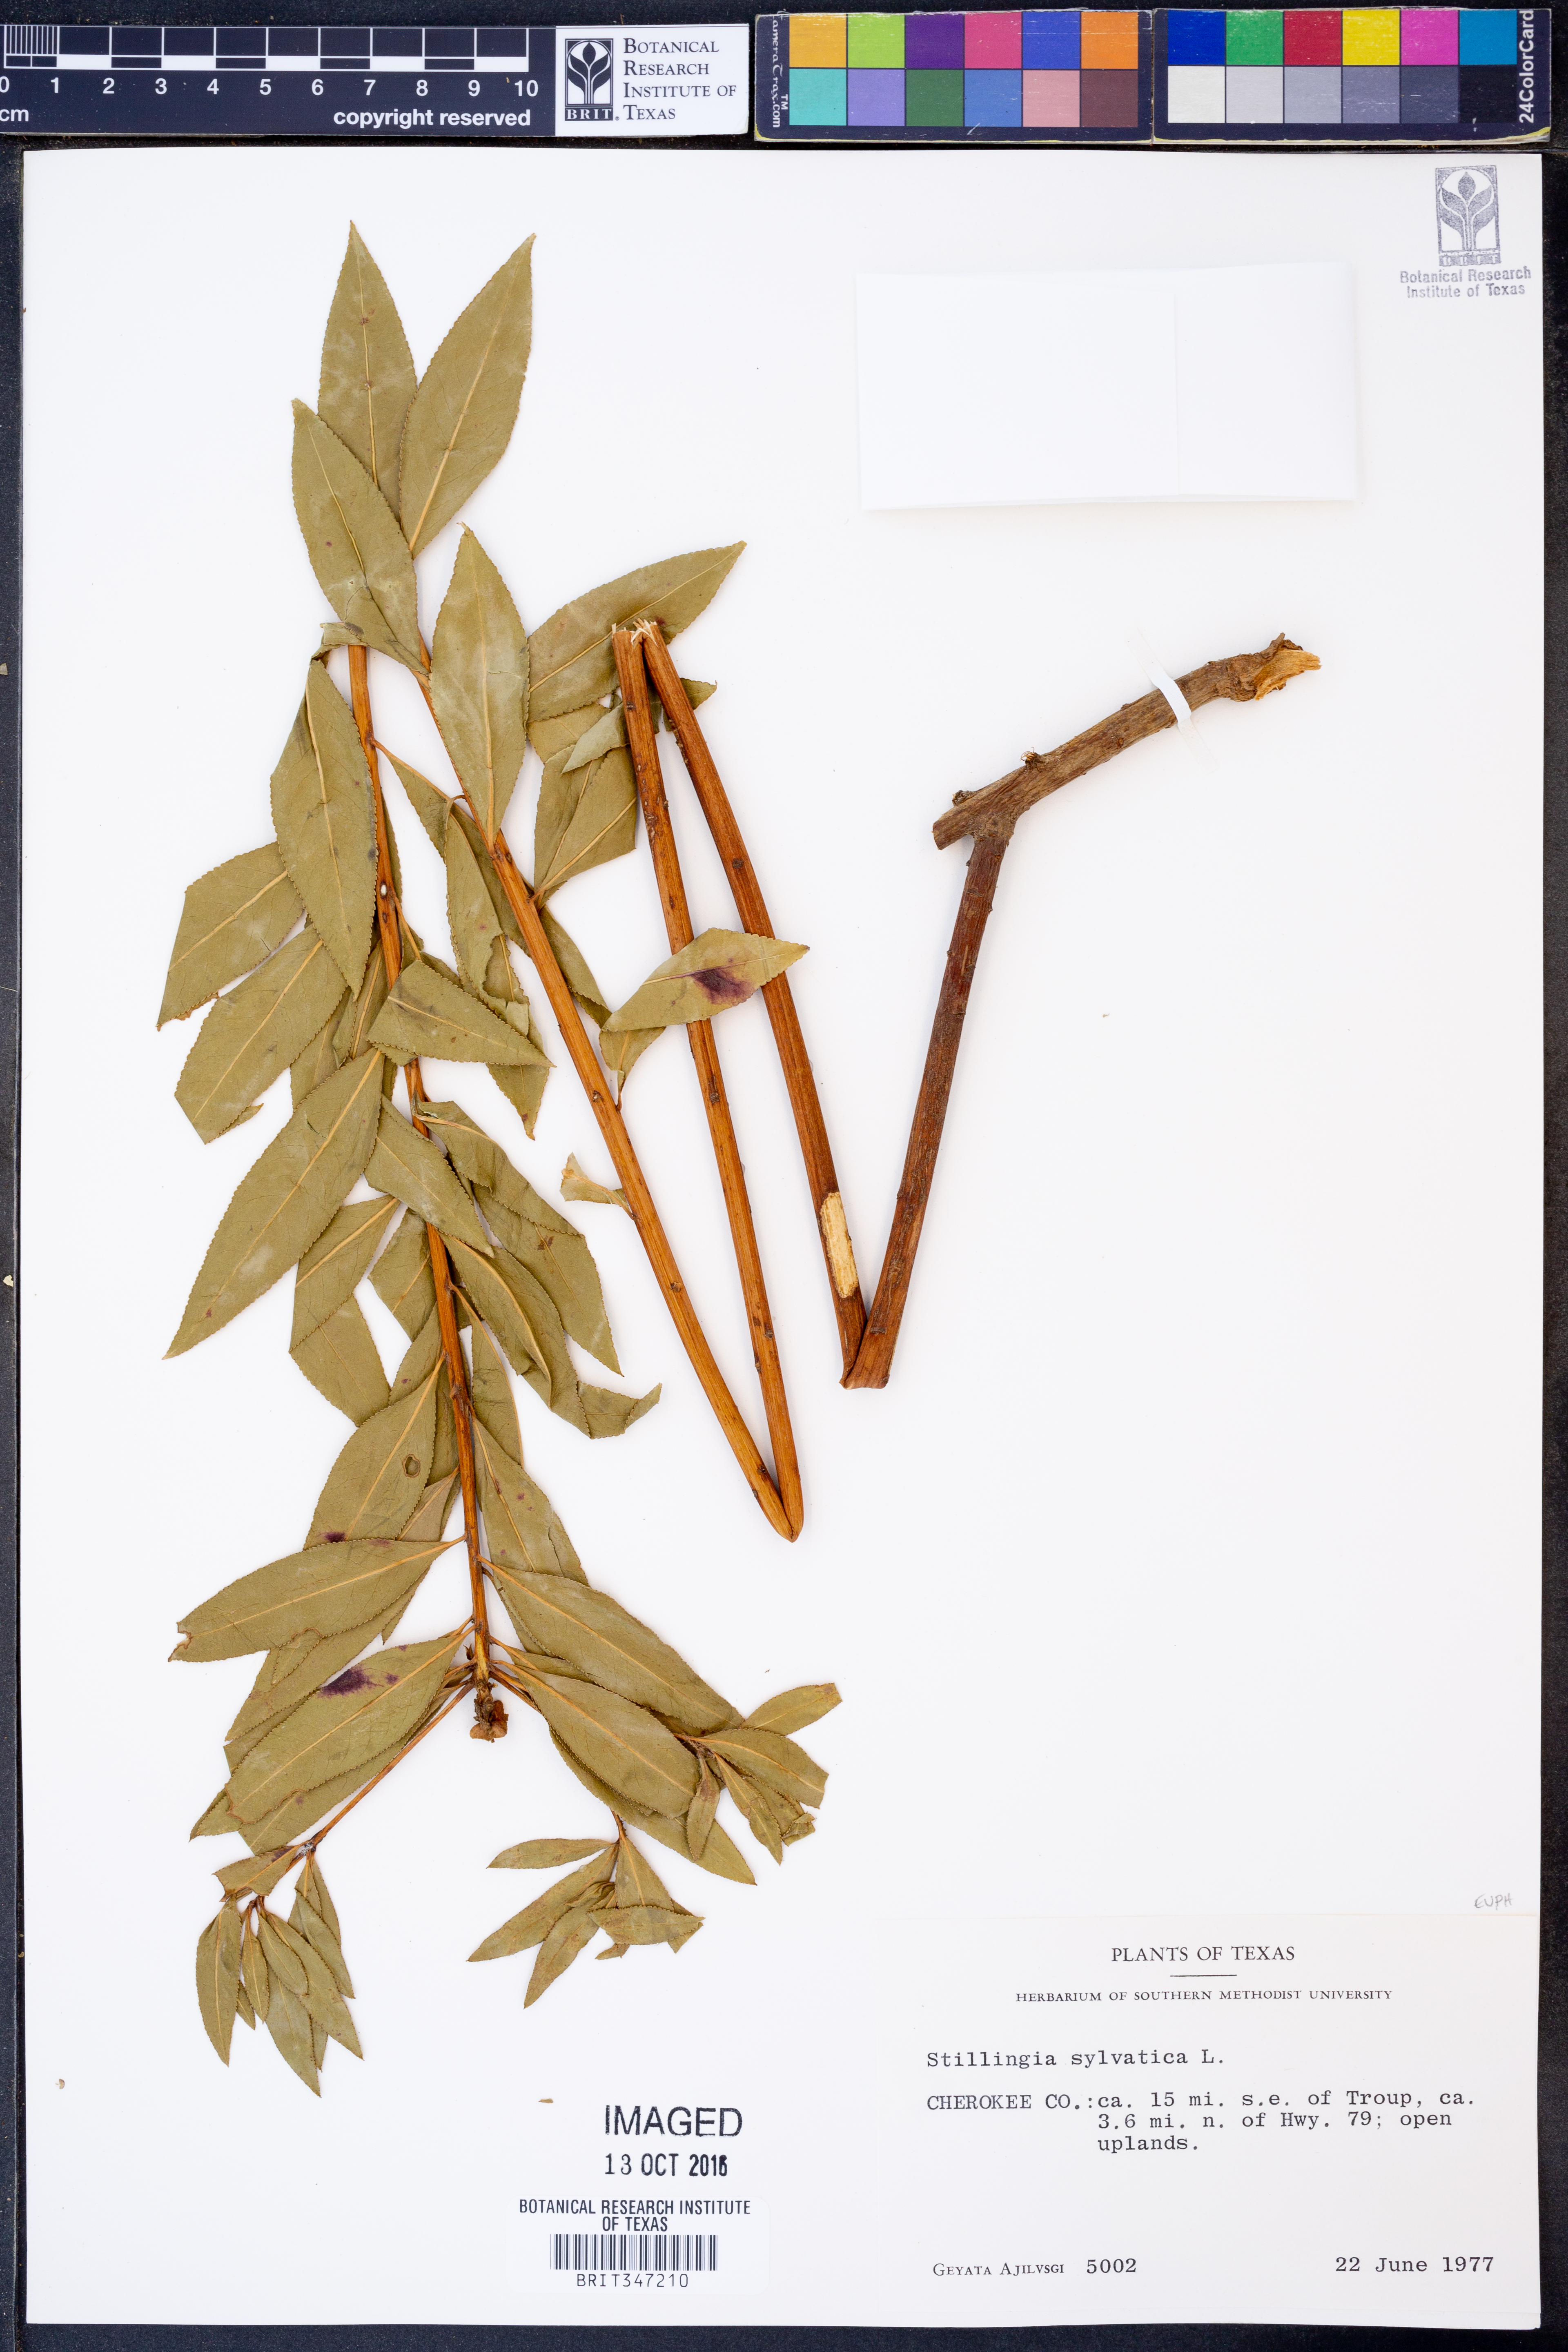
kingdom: Plantae
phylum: Tracheophyta
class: Magnoliopsida
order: Malpighiales
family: Euphorbiaceae
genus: Stillingia
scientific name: Stillingia sylvatica
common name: Queen's-delight
